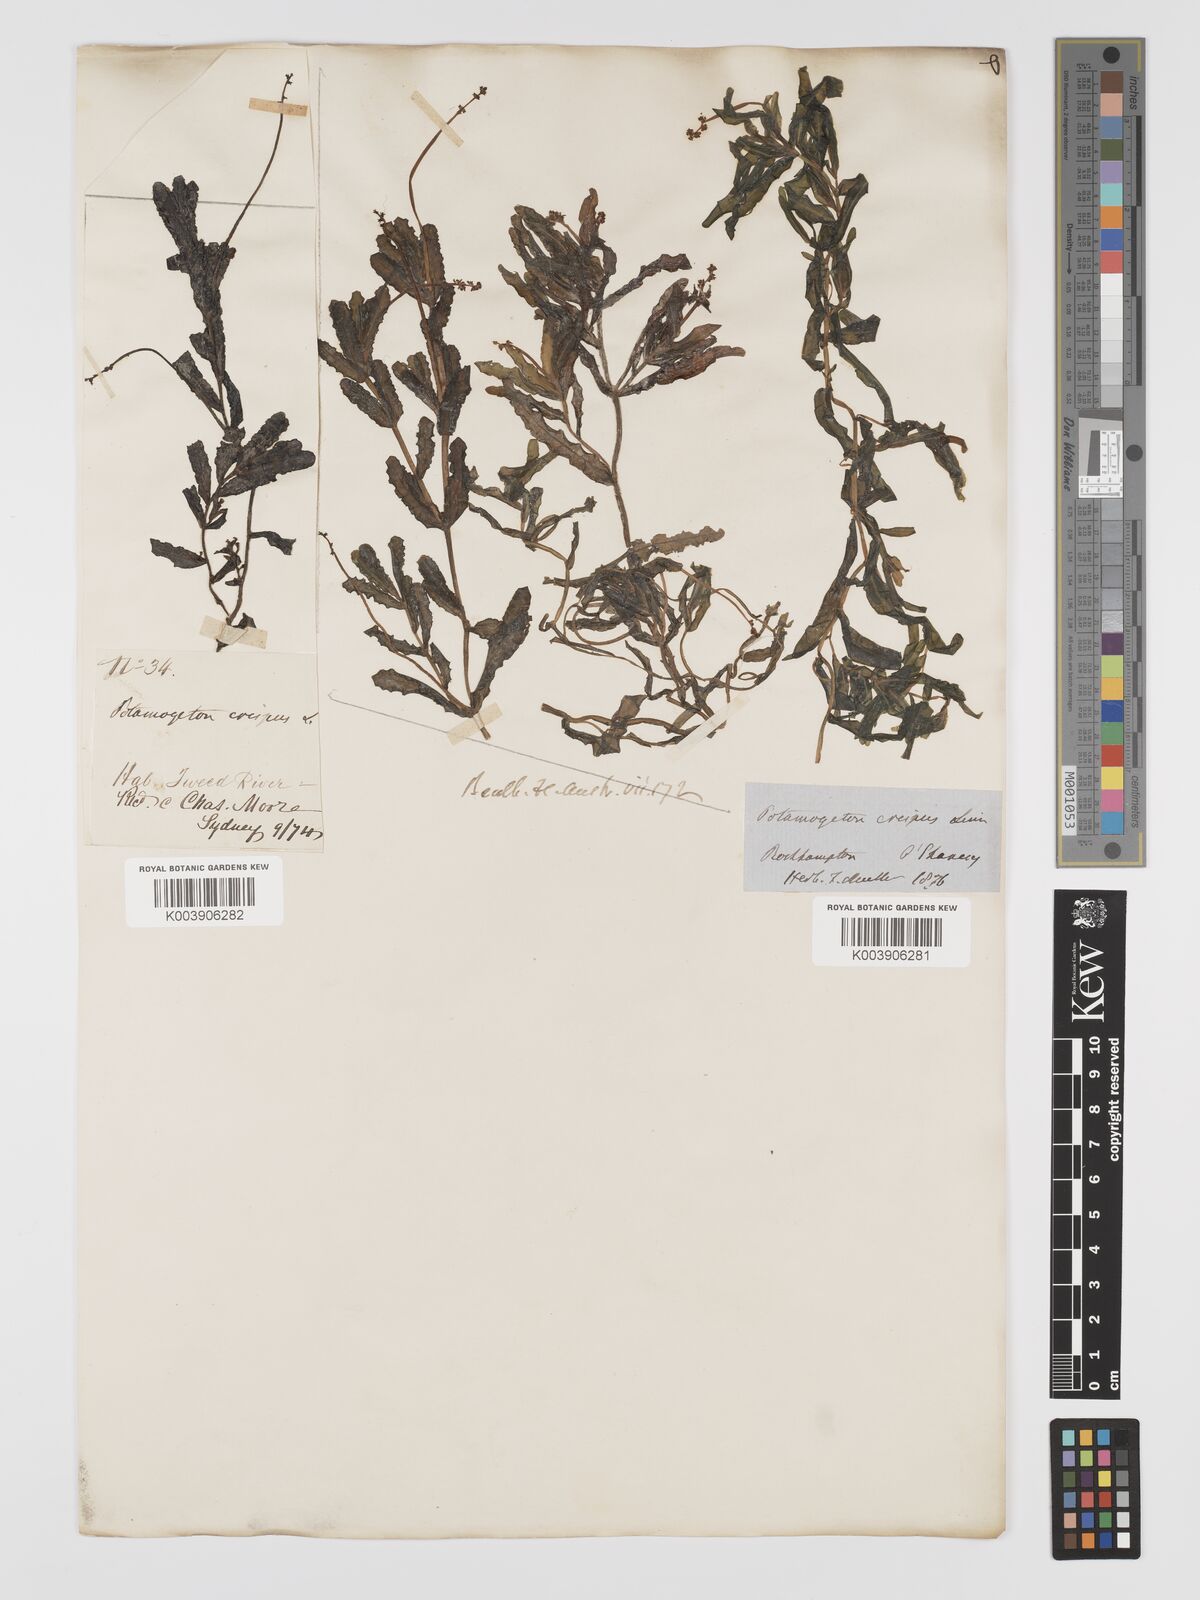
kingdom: Plantae
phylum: Tracheophyta
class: Liliopsida
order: Alismatales
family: Potamogetonaceae
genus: Potamogeton
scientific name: Potamogeton crispus
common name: Curled pondweed
